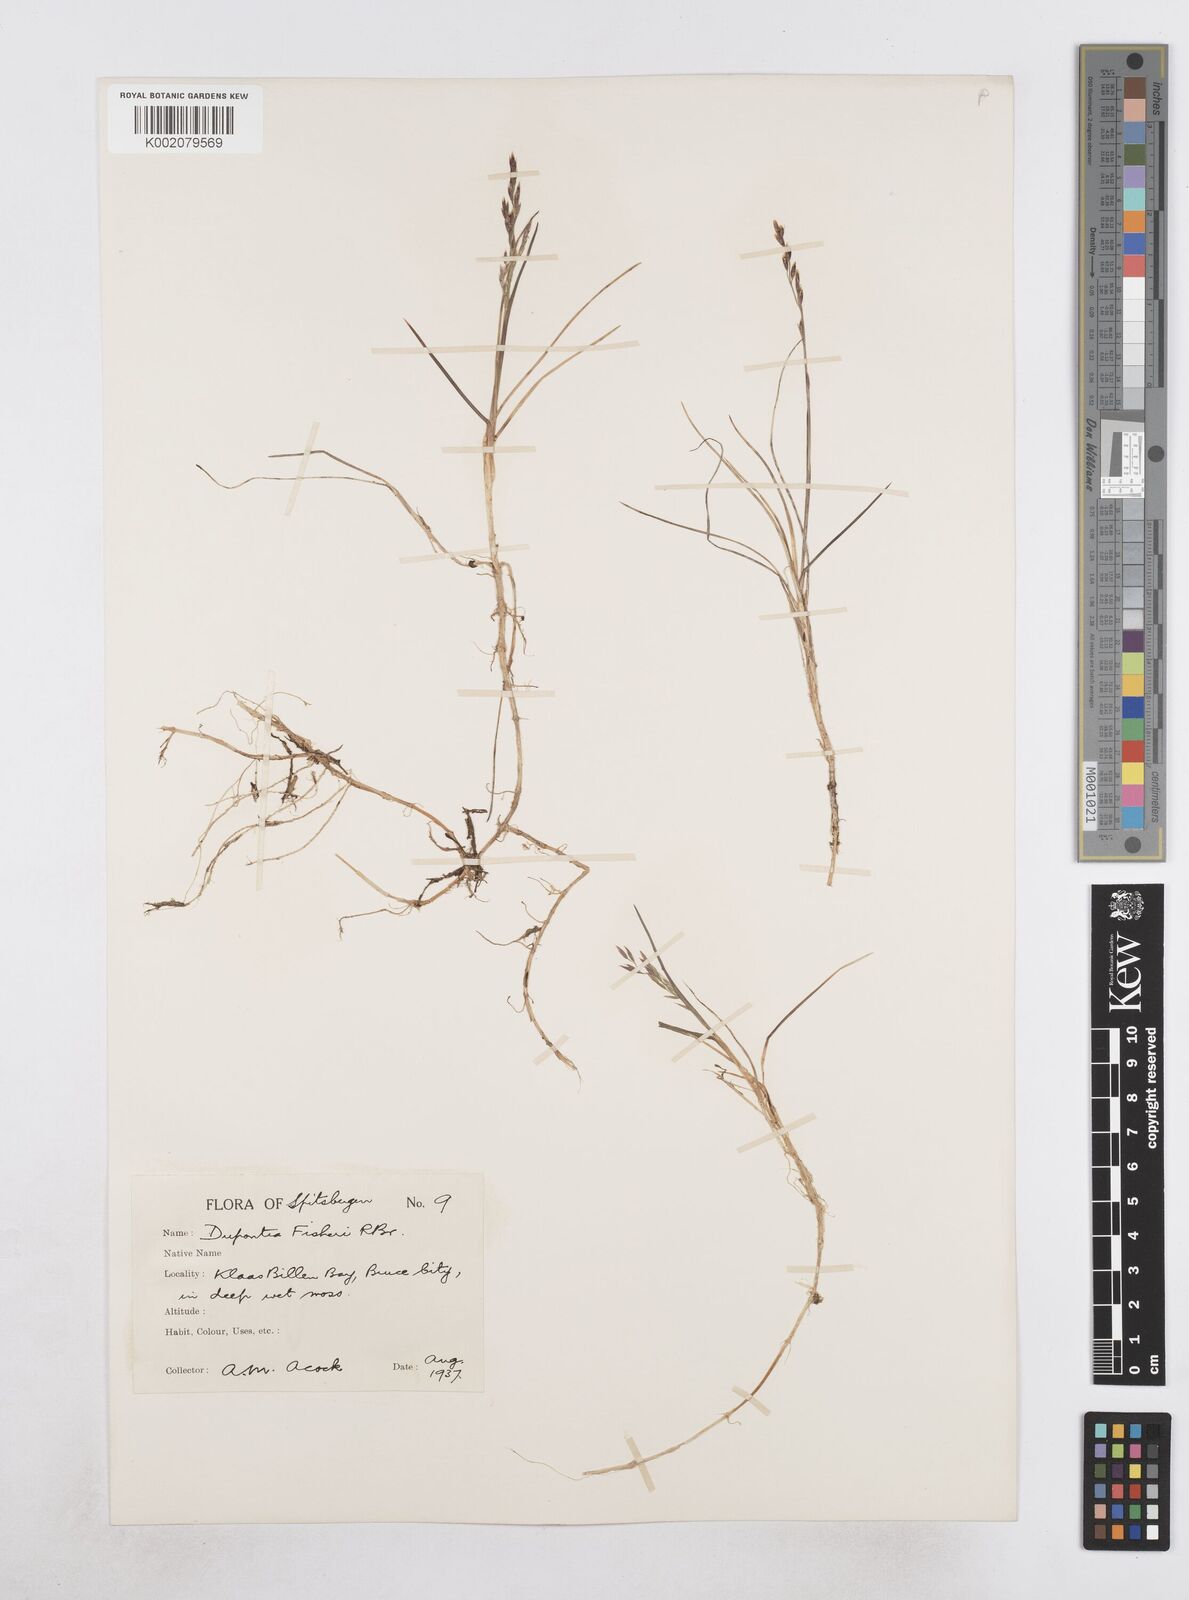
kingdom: Plantae
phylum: Tracheophyta
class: Liliopsida
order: Poales
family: Poaceae
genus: Dupontia
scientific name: Dupontia fisheri
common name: Tundra grass
